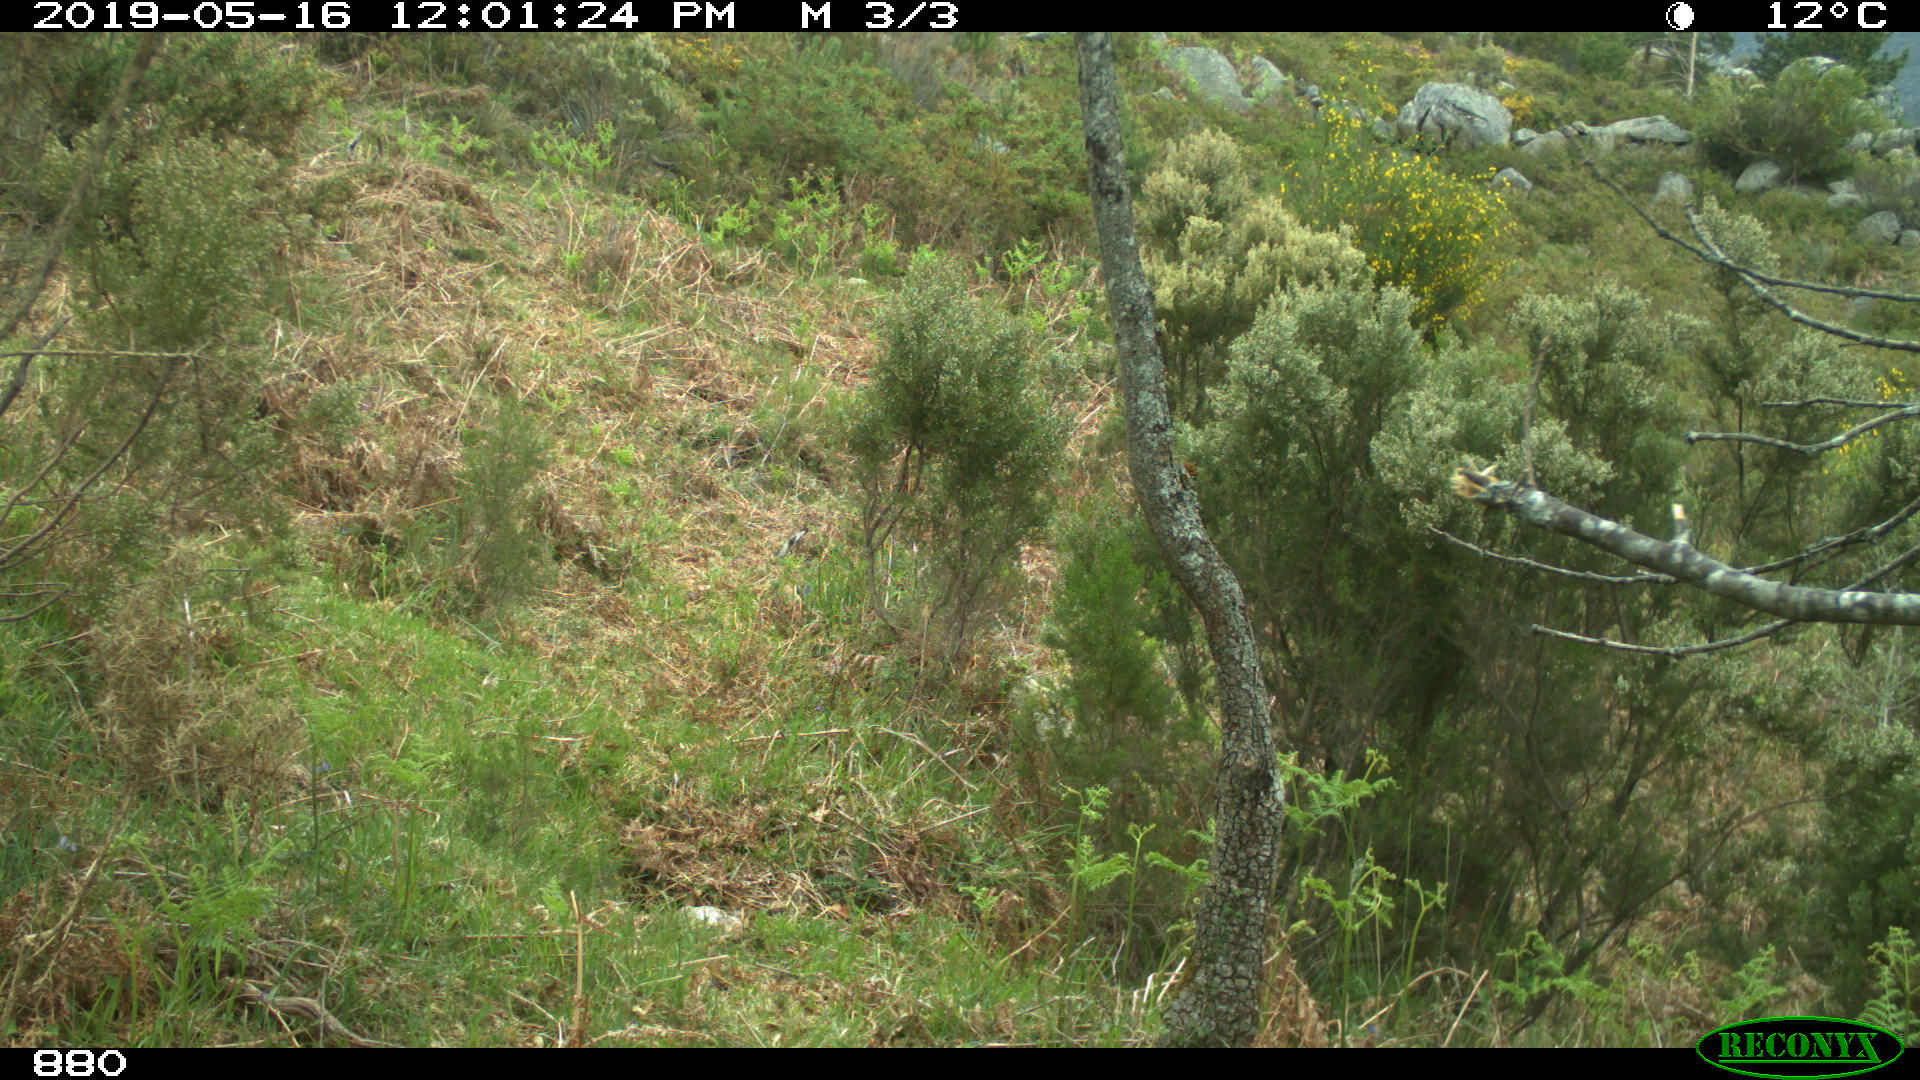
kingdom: Animalia
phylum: Chordata
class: Mammalia
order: Carnivora
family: Canidae
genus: Canis
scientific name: Canis lupus
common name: Gray wolf
